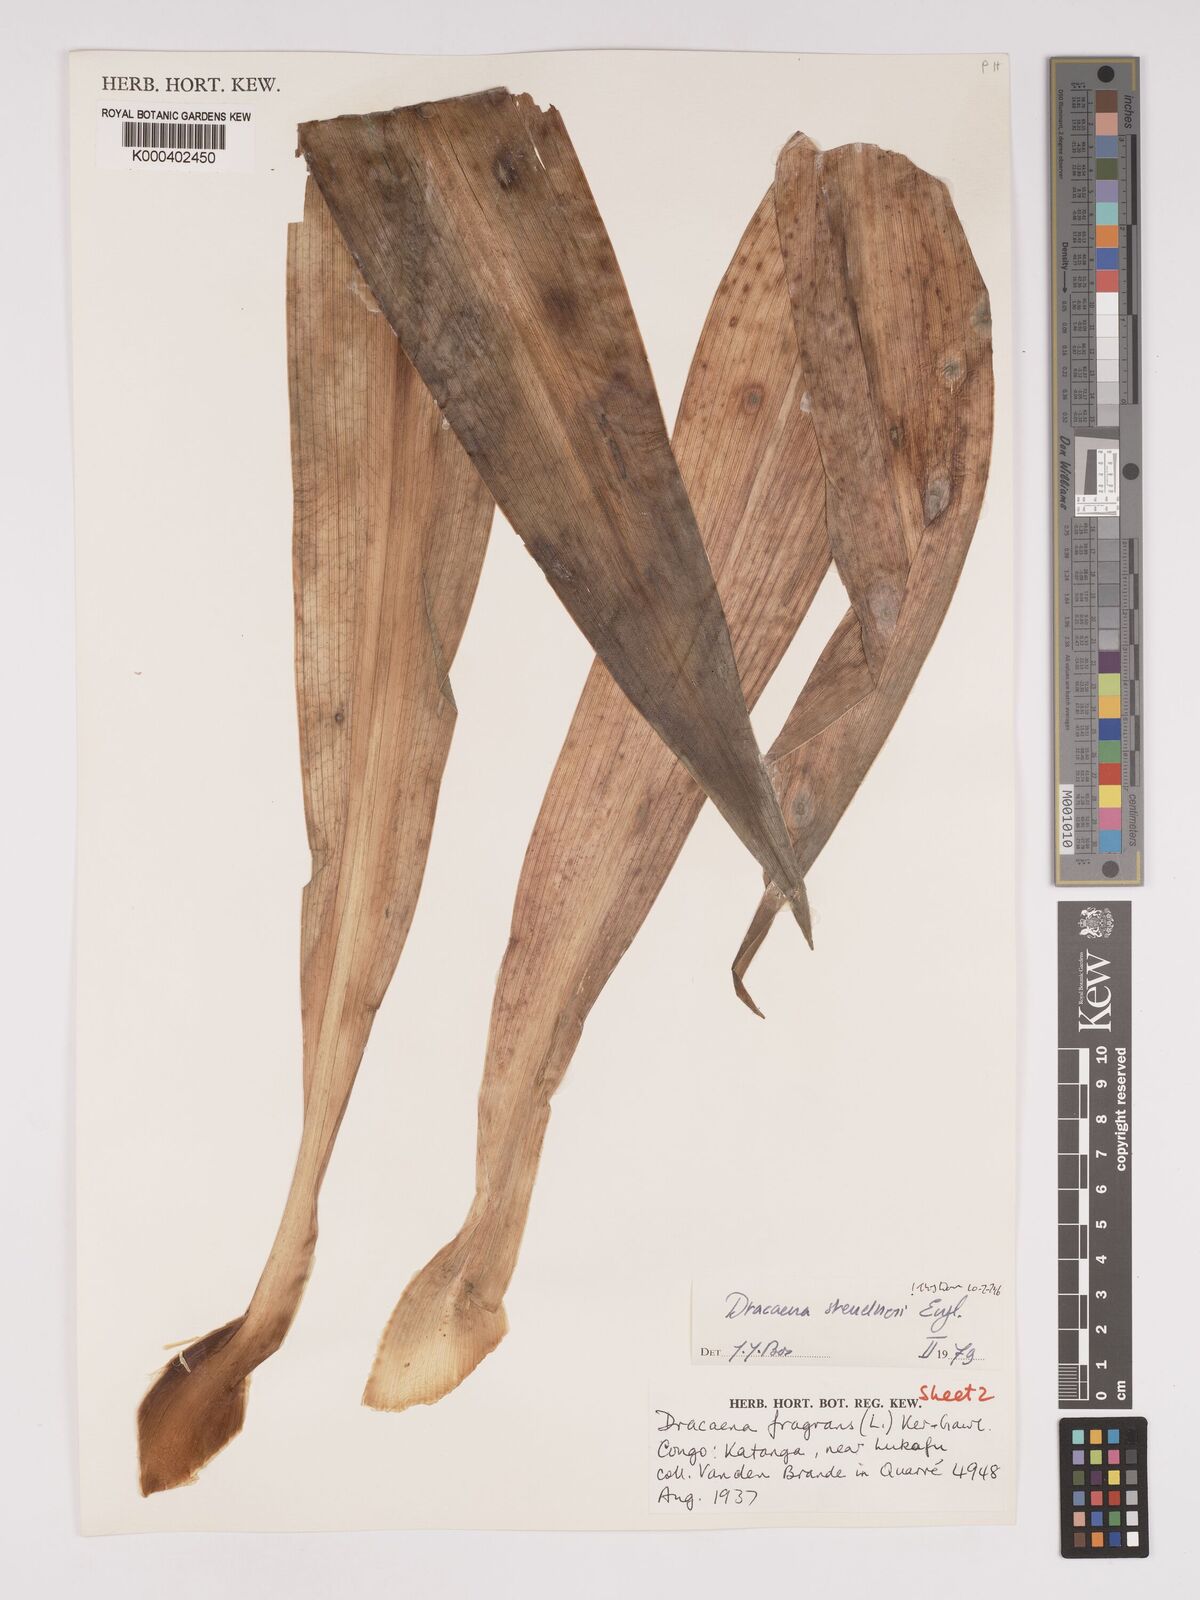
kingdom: Plantae
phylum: Tracheophyta
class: Liliopsida
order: Asparagales
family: Asparagaceae
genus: Dracaena
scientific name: Dracaena steudneri
